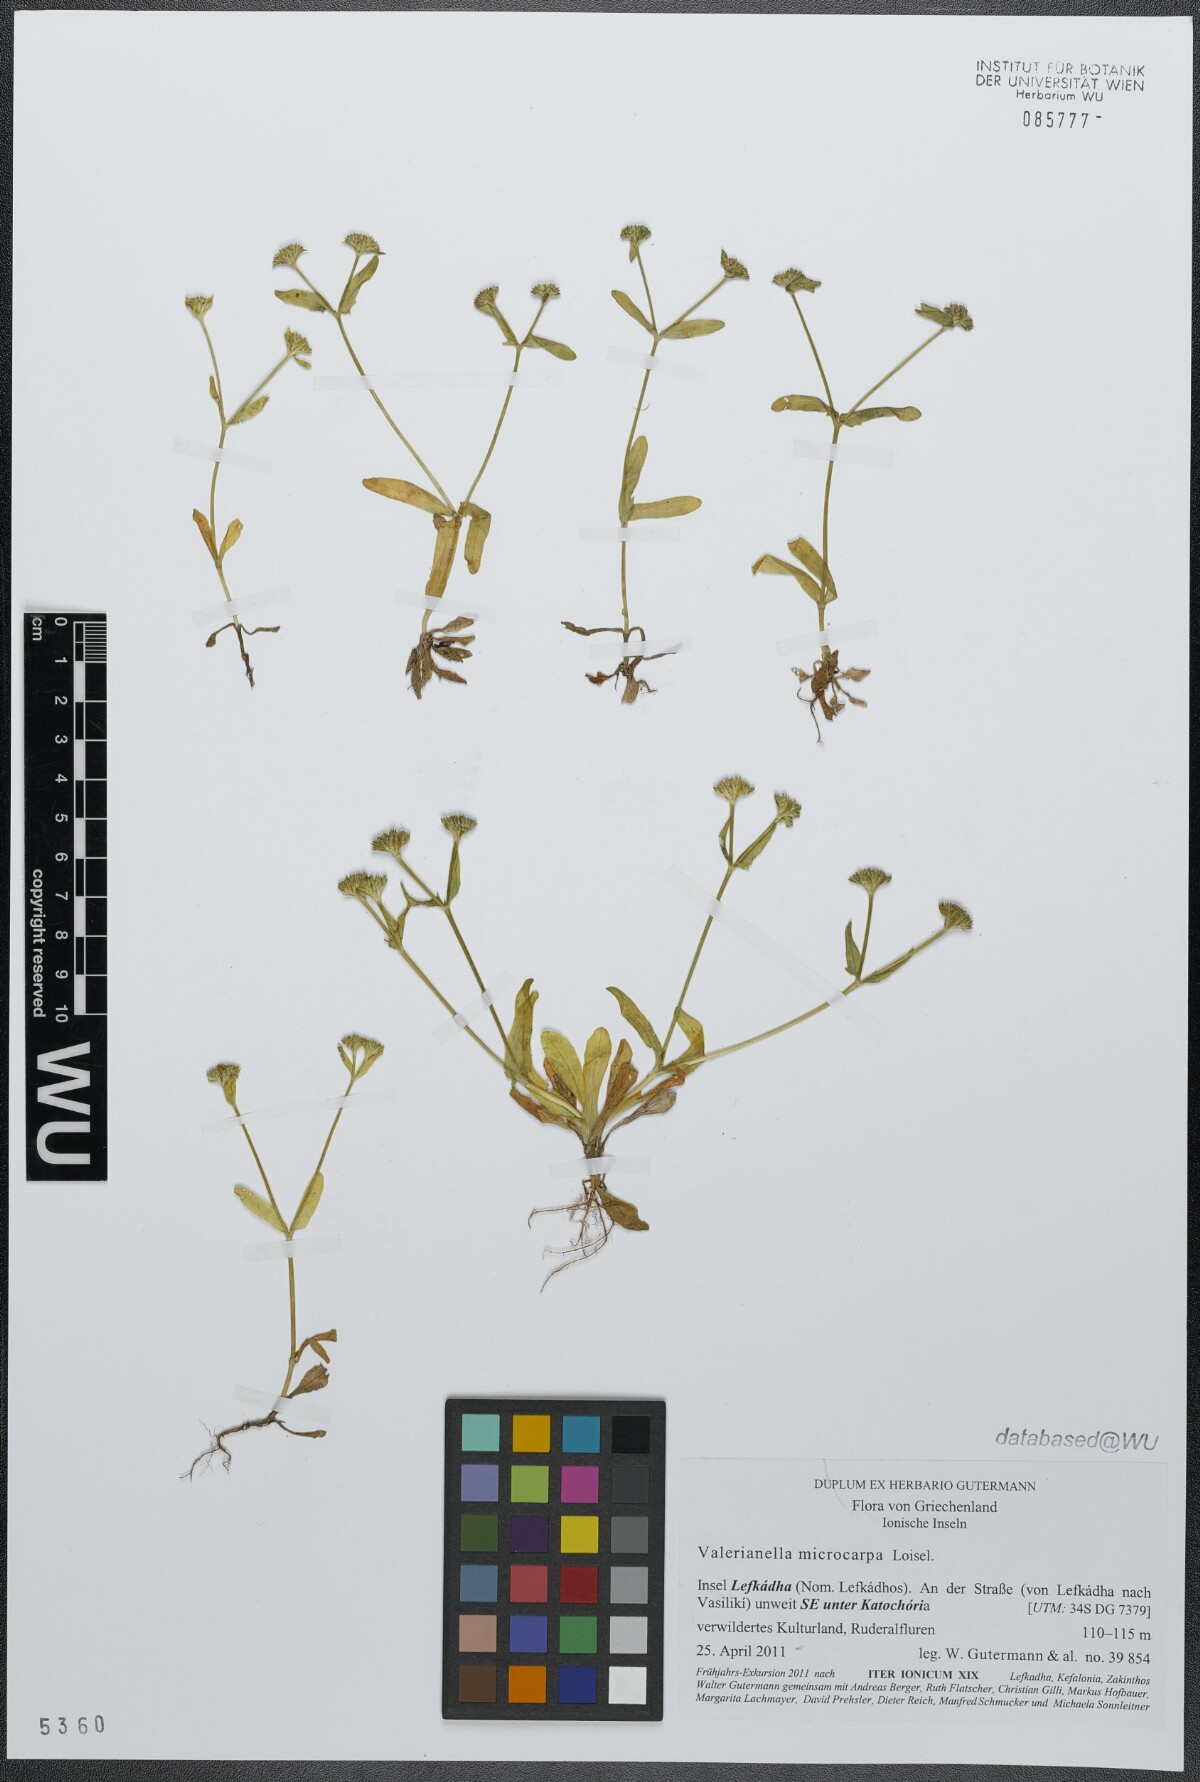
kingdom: Plantae
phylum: Tracheophyta
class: Magnoliopsida
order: Dipsacales
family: Caprifoliaceae
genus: Valerianella
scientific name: Valerianella microcarpa
